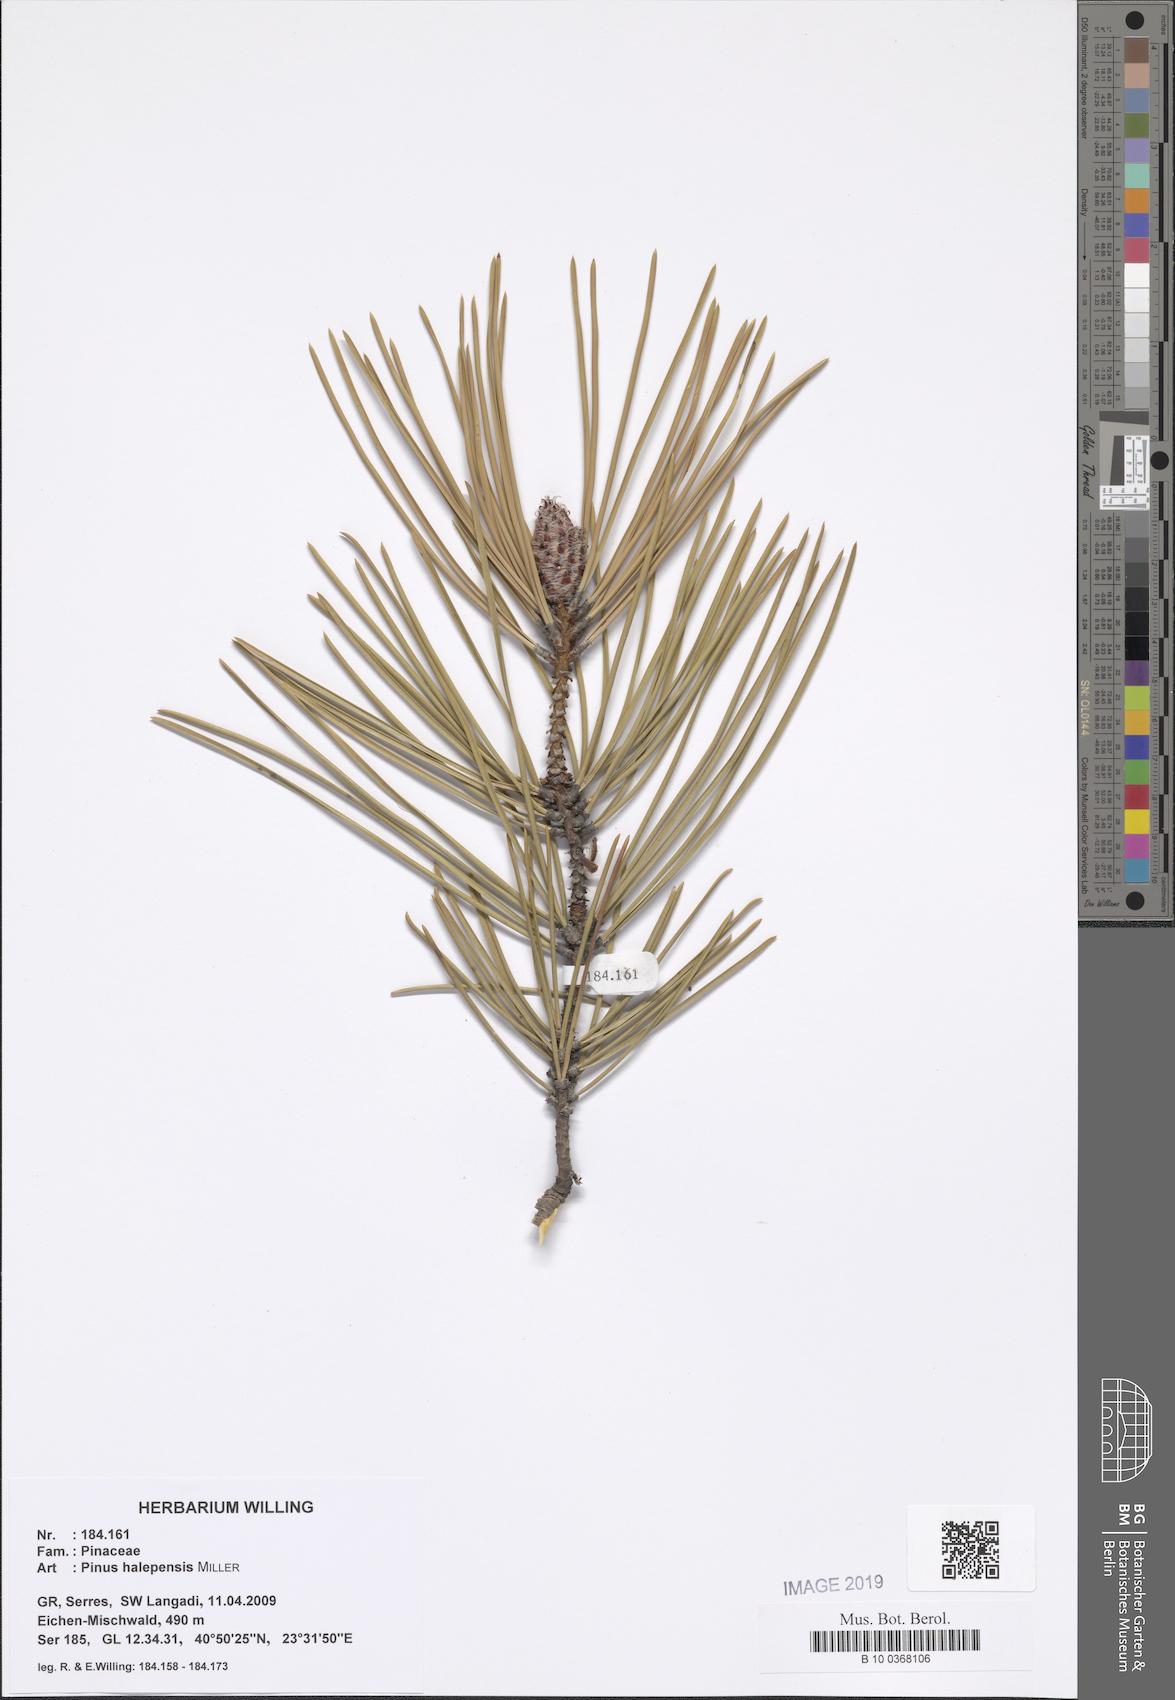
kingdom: Plantae
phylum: Tracheophyta
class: Pinopsida
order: Pinales
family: Pinaceae
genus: Pinus
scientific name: Pinus halepensis
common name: Aleppo pine
